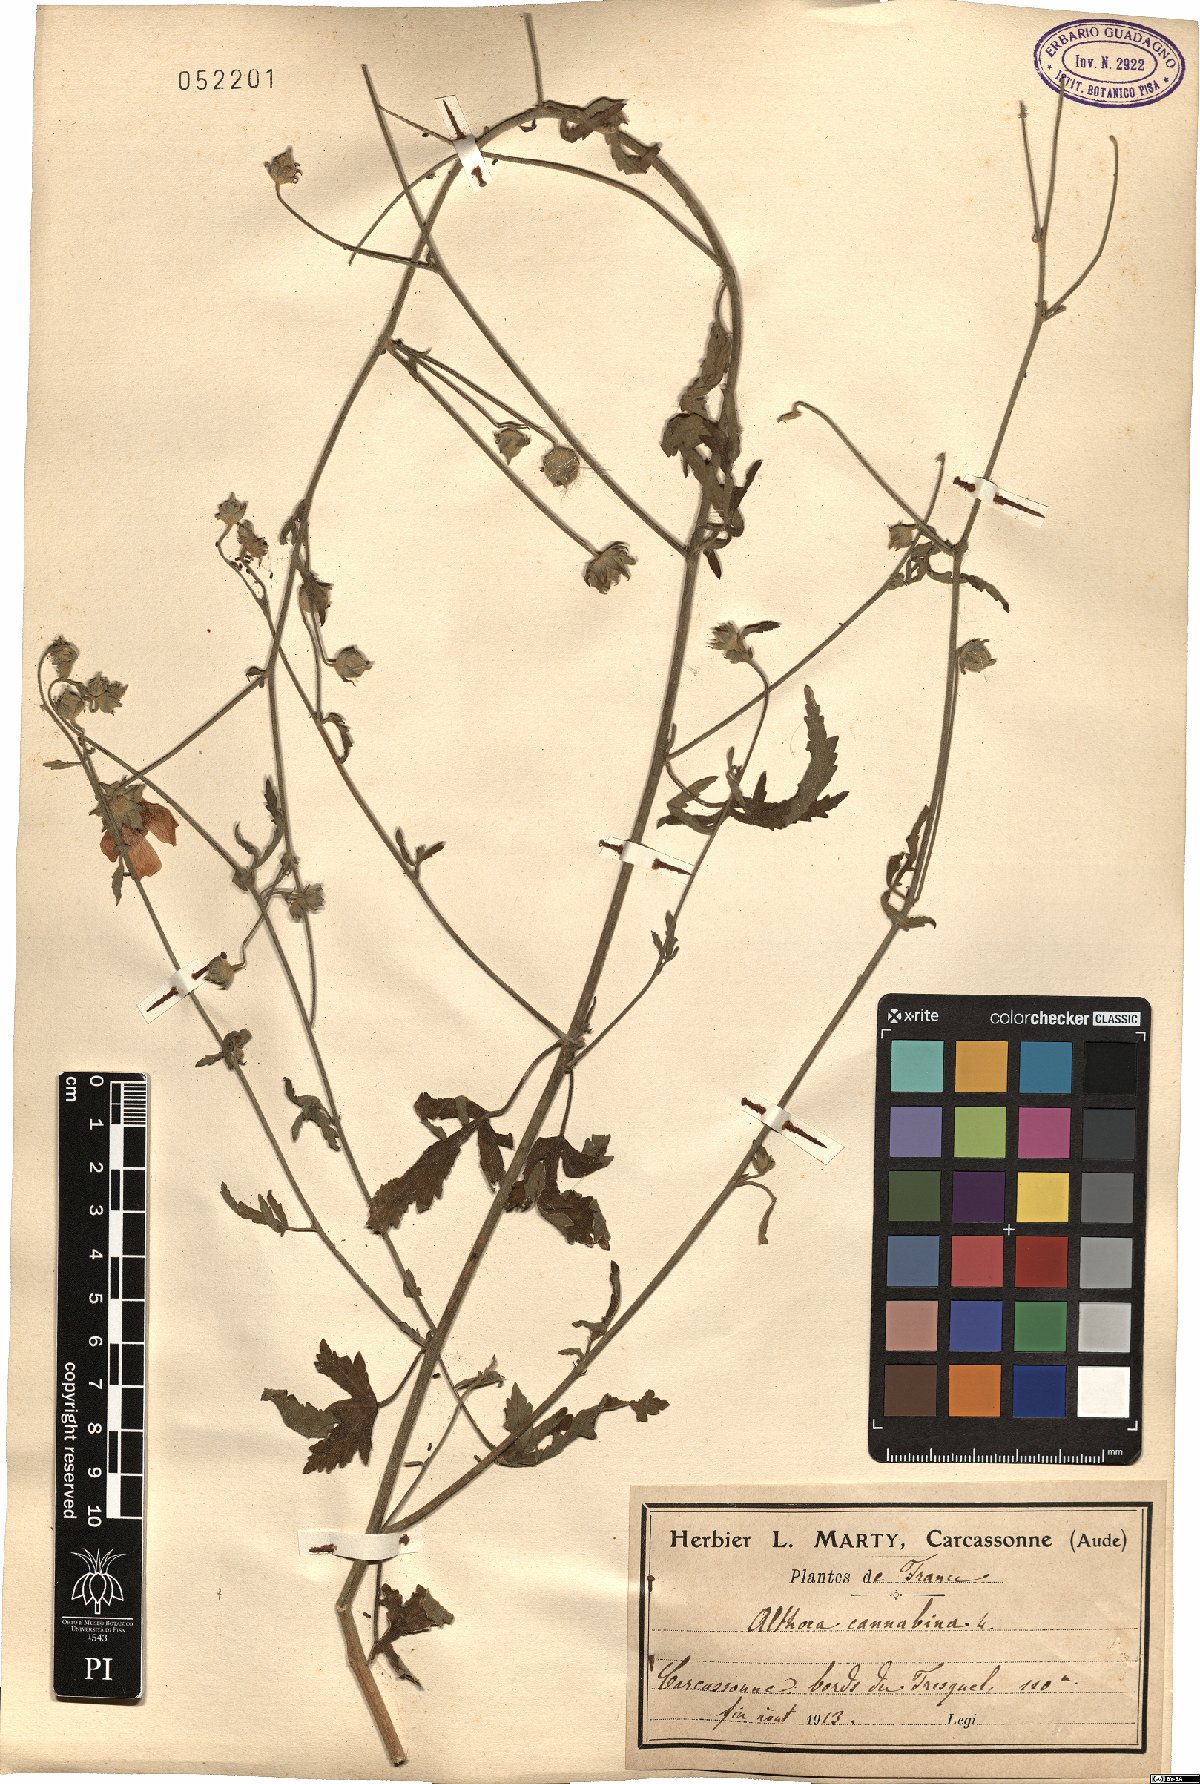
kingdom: Plantae
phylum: Tracheophyta
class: Magnoliopsida
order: Malvales
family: Malvaceae
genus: Althaea
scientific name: Althaea cannabina
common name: Palm-leaf marshmallow
